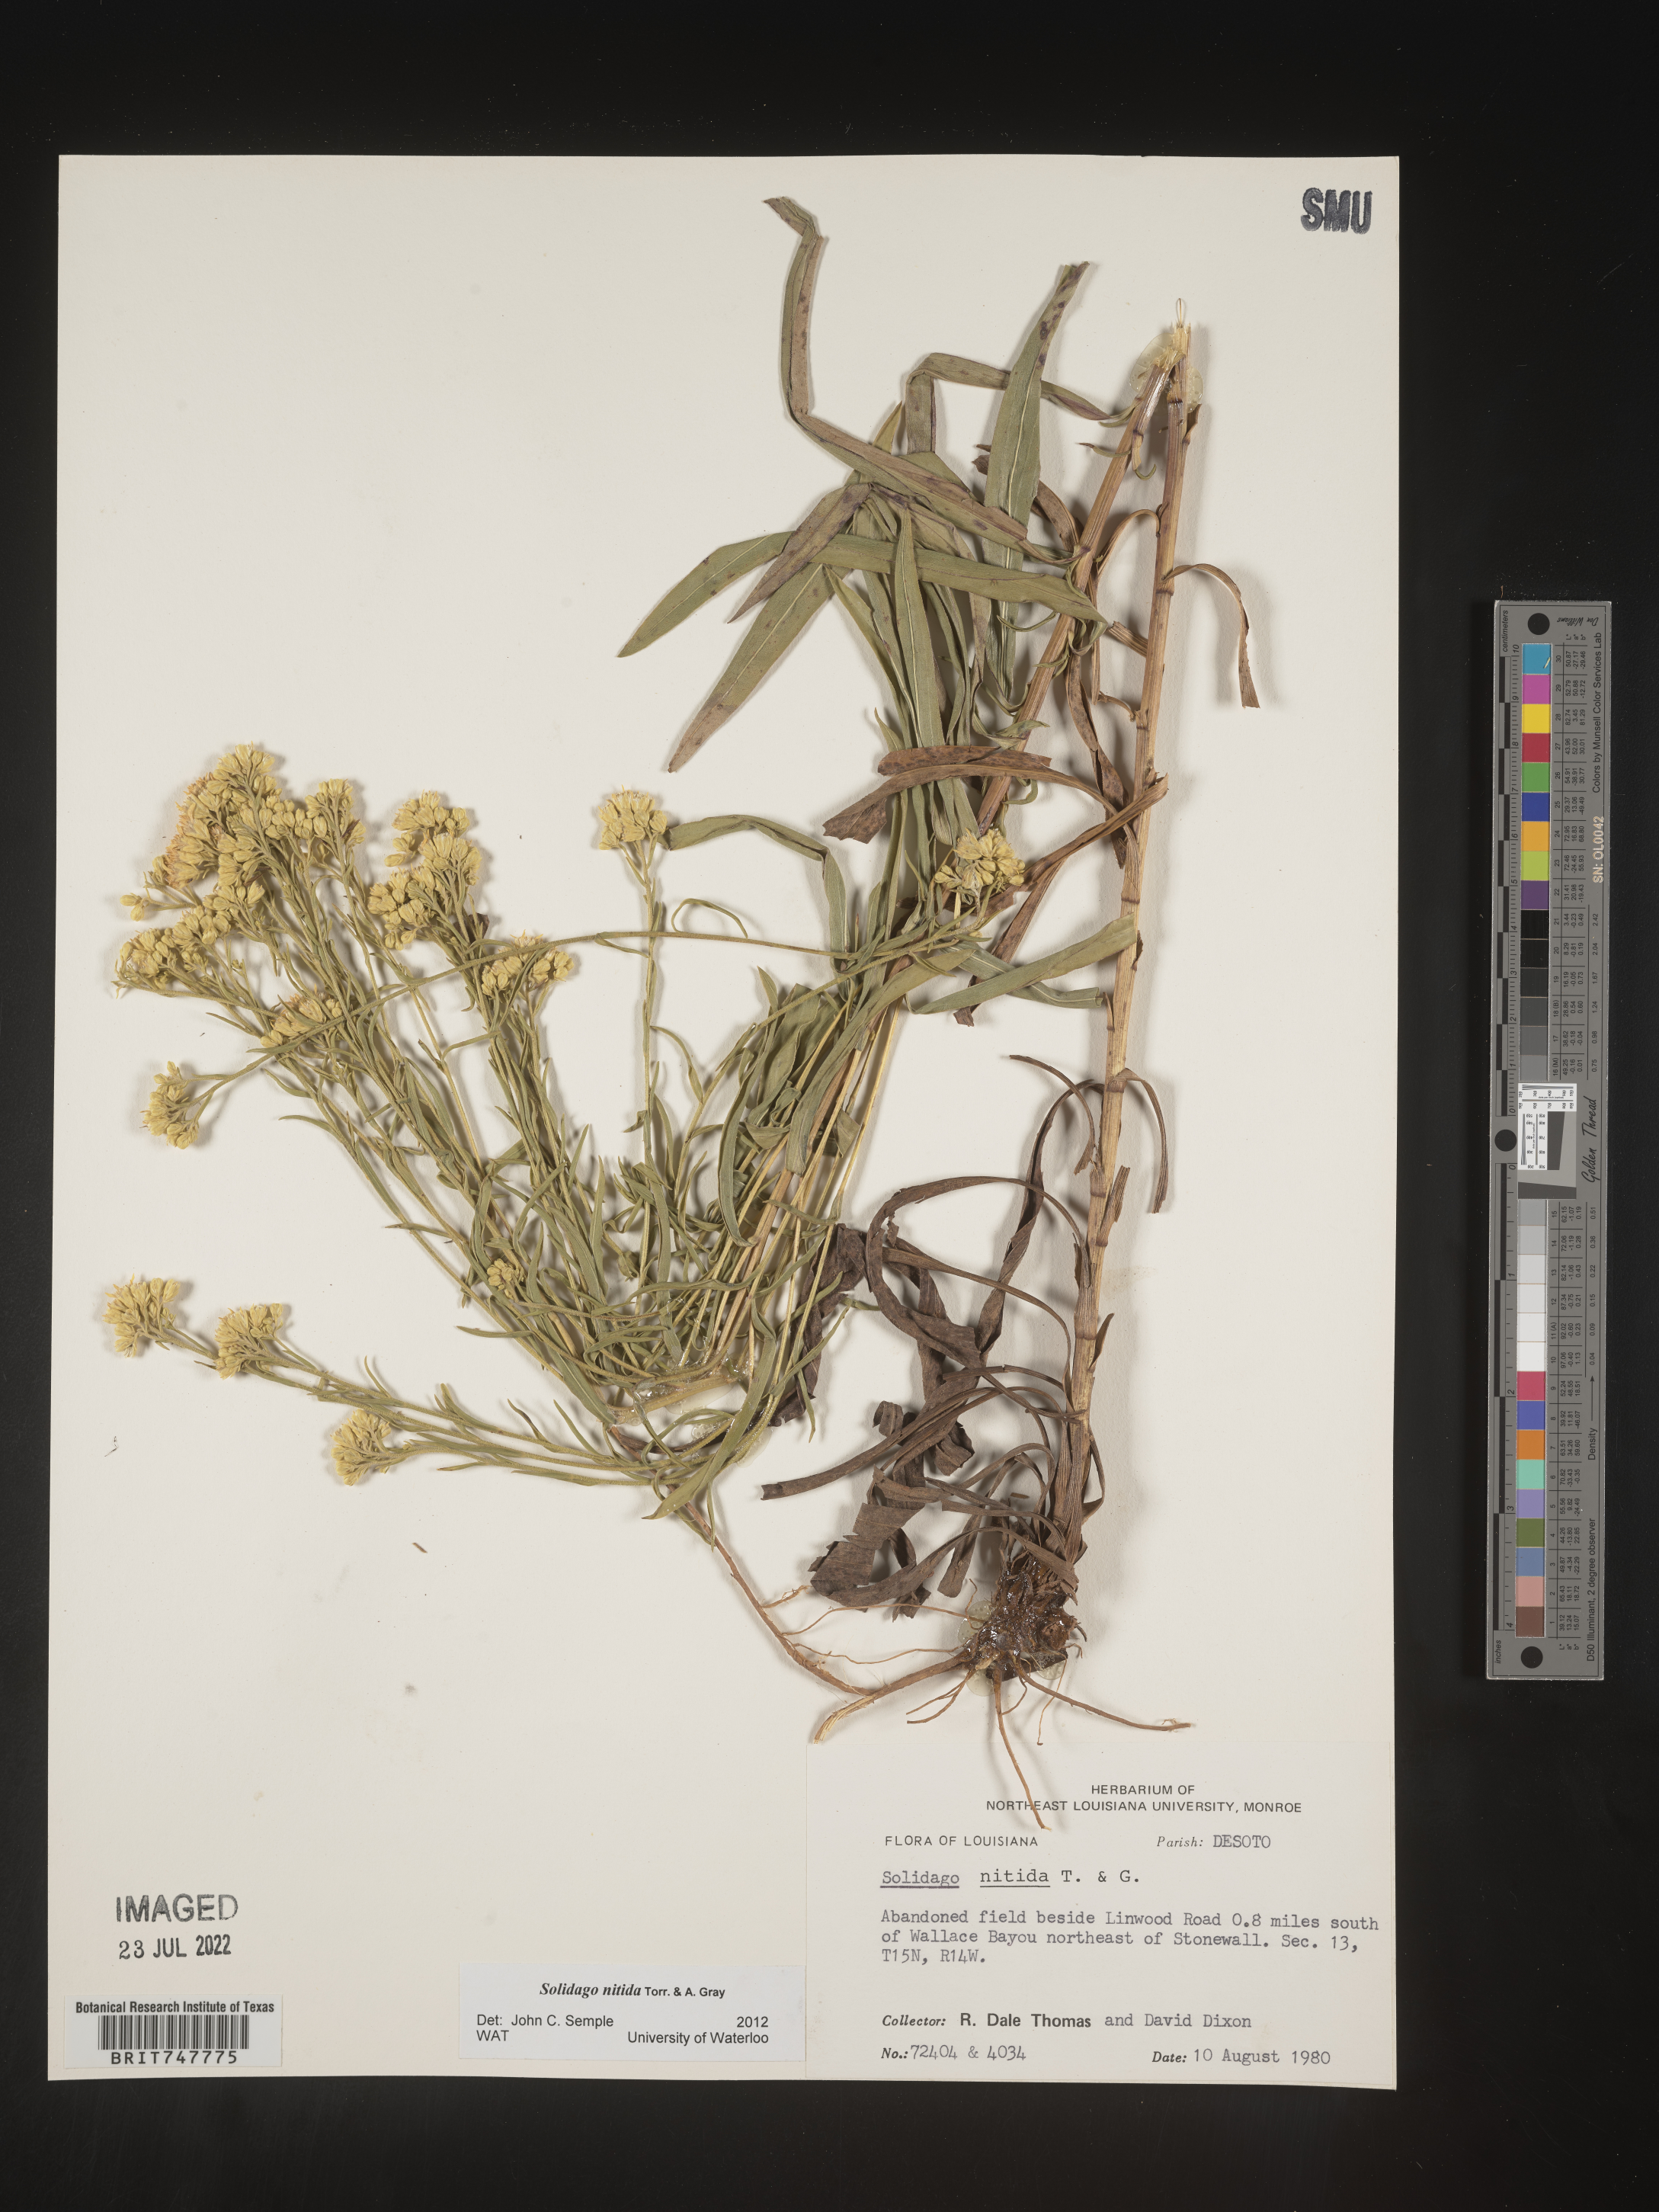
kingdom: Plantae
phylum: Tracheophyta
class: Magnoliopsida
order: Asterales
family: Asteraceae
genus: Solidago
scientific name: Solidago nitida
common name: Shiny goldenrod
